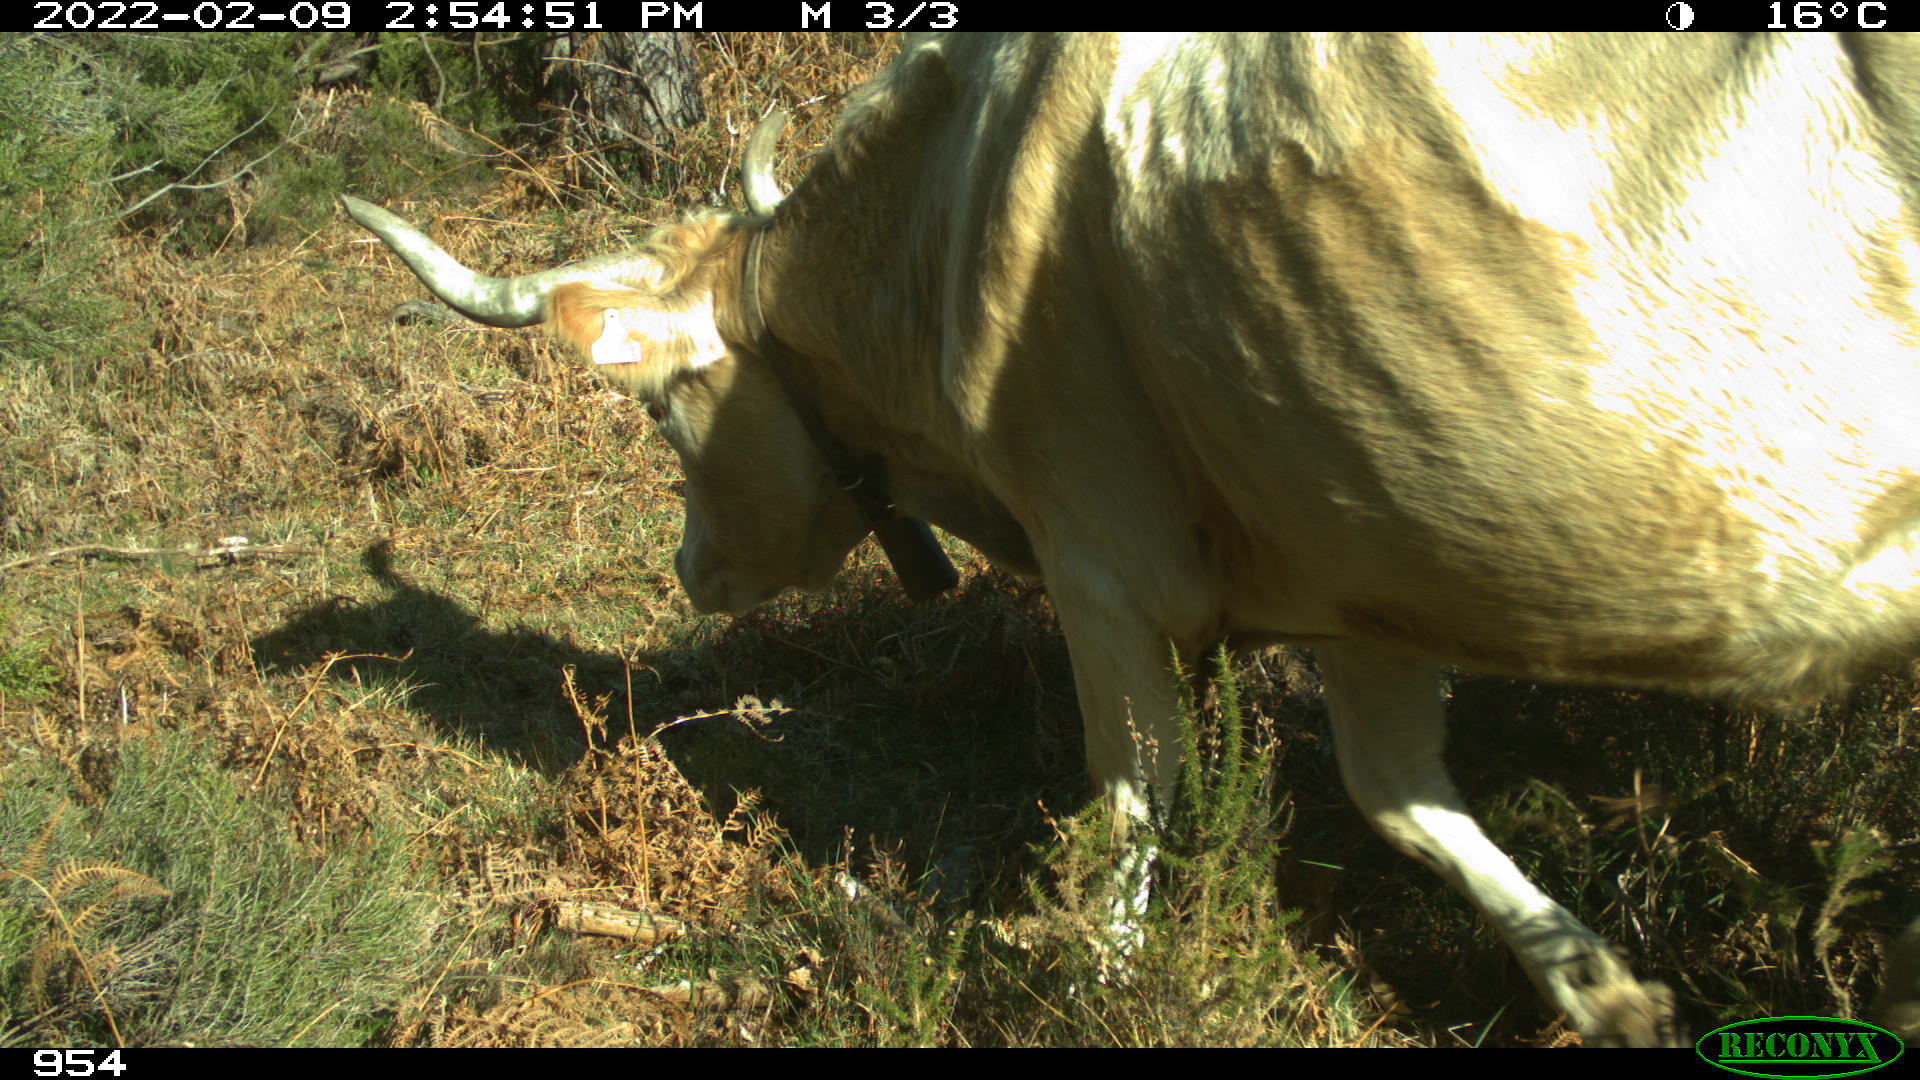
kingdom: Animalia
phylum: Chordata
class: Mammalia
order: Artiodactyla
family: Bovidae
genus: Bos
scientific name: Bos taurus
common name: Domesticated cattle
